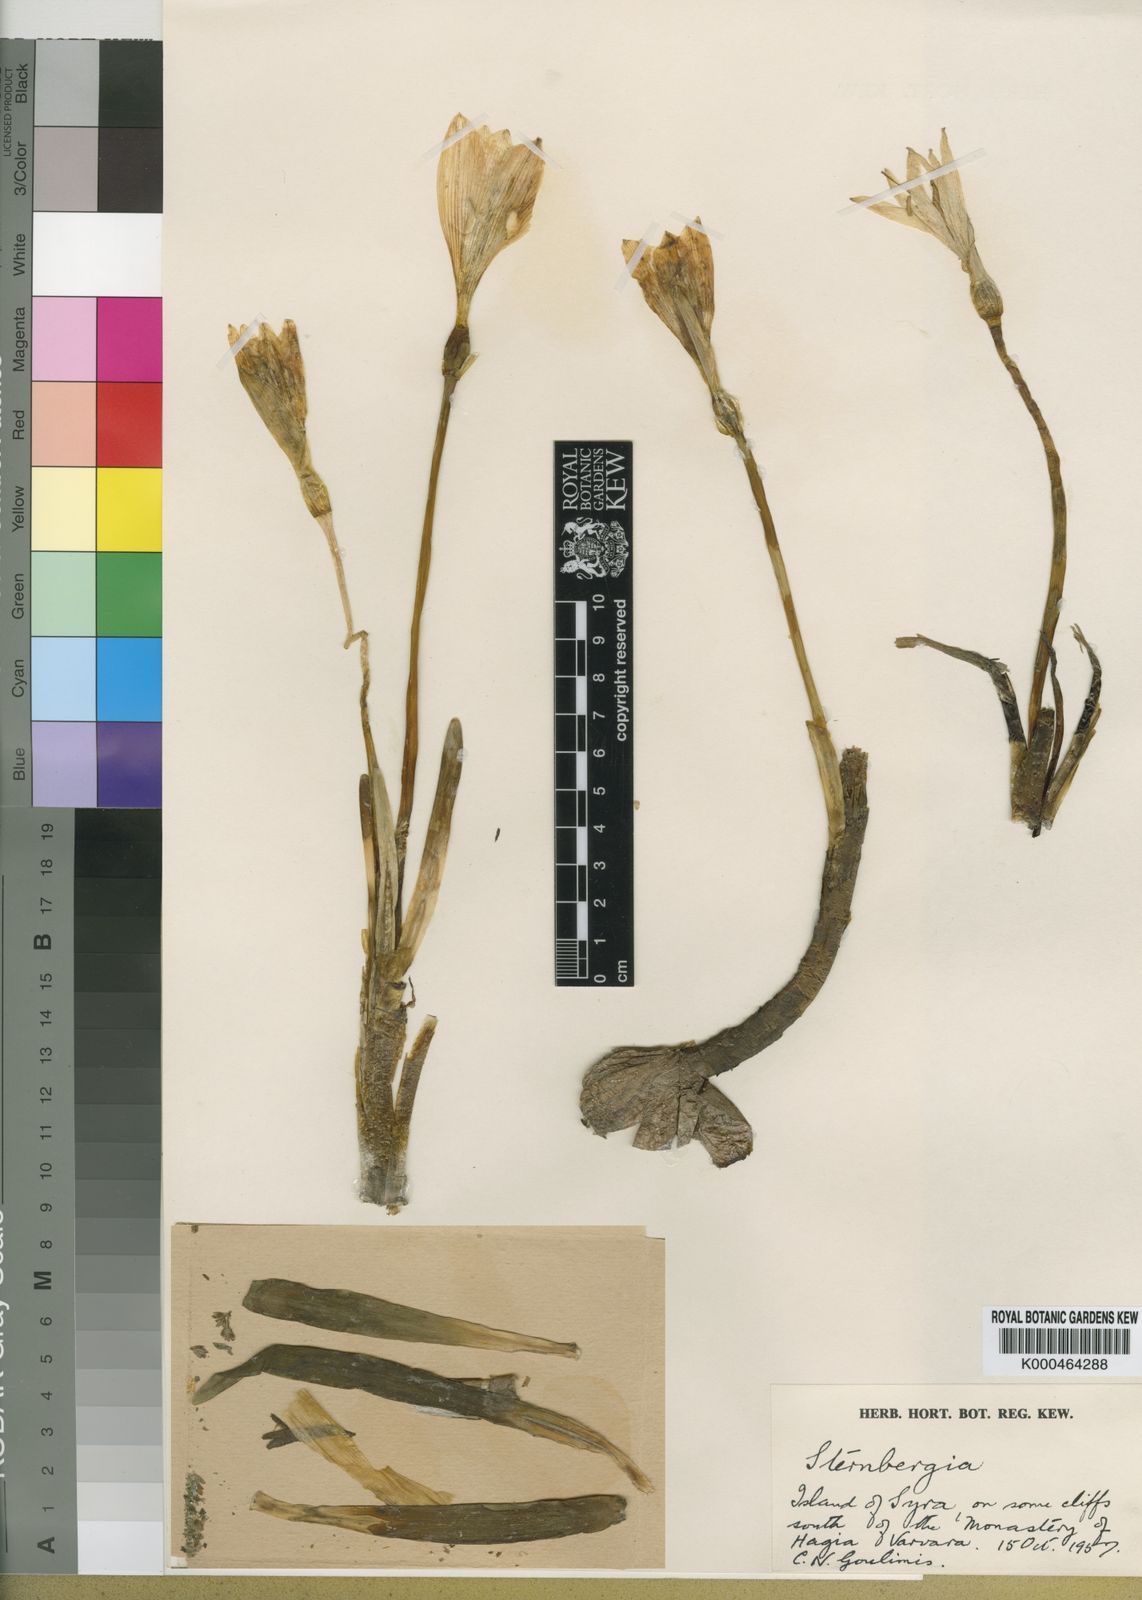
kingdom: Plantae
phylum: Tracheophyta
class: Liliopsida
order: Asparagales
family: Amaryllidaceae
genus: Sternbergia
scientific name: Sternbergia
